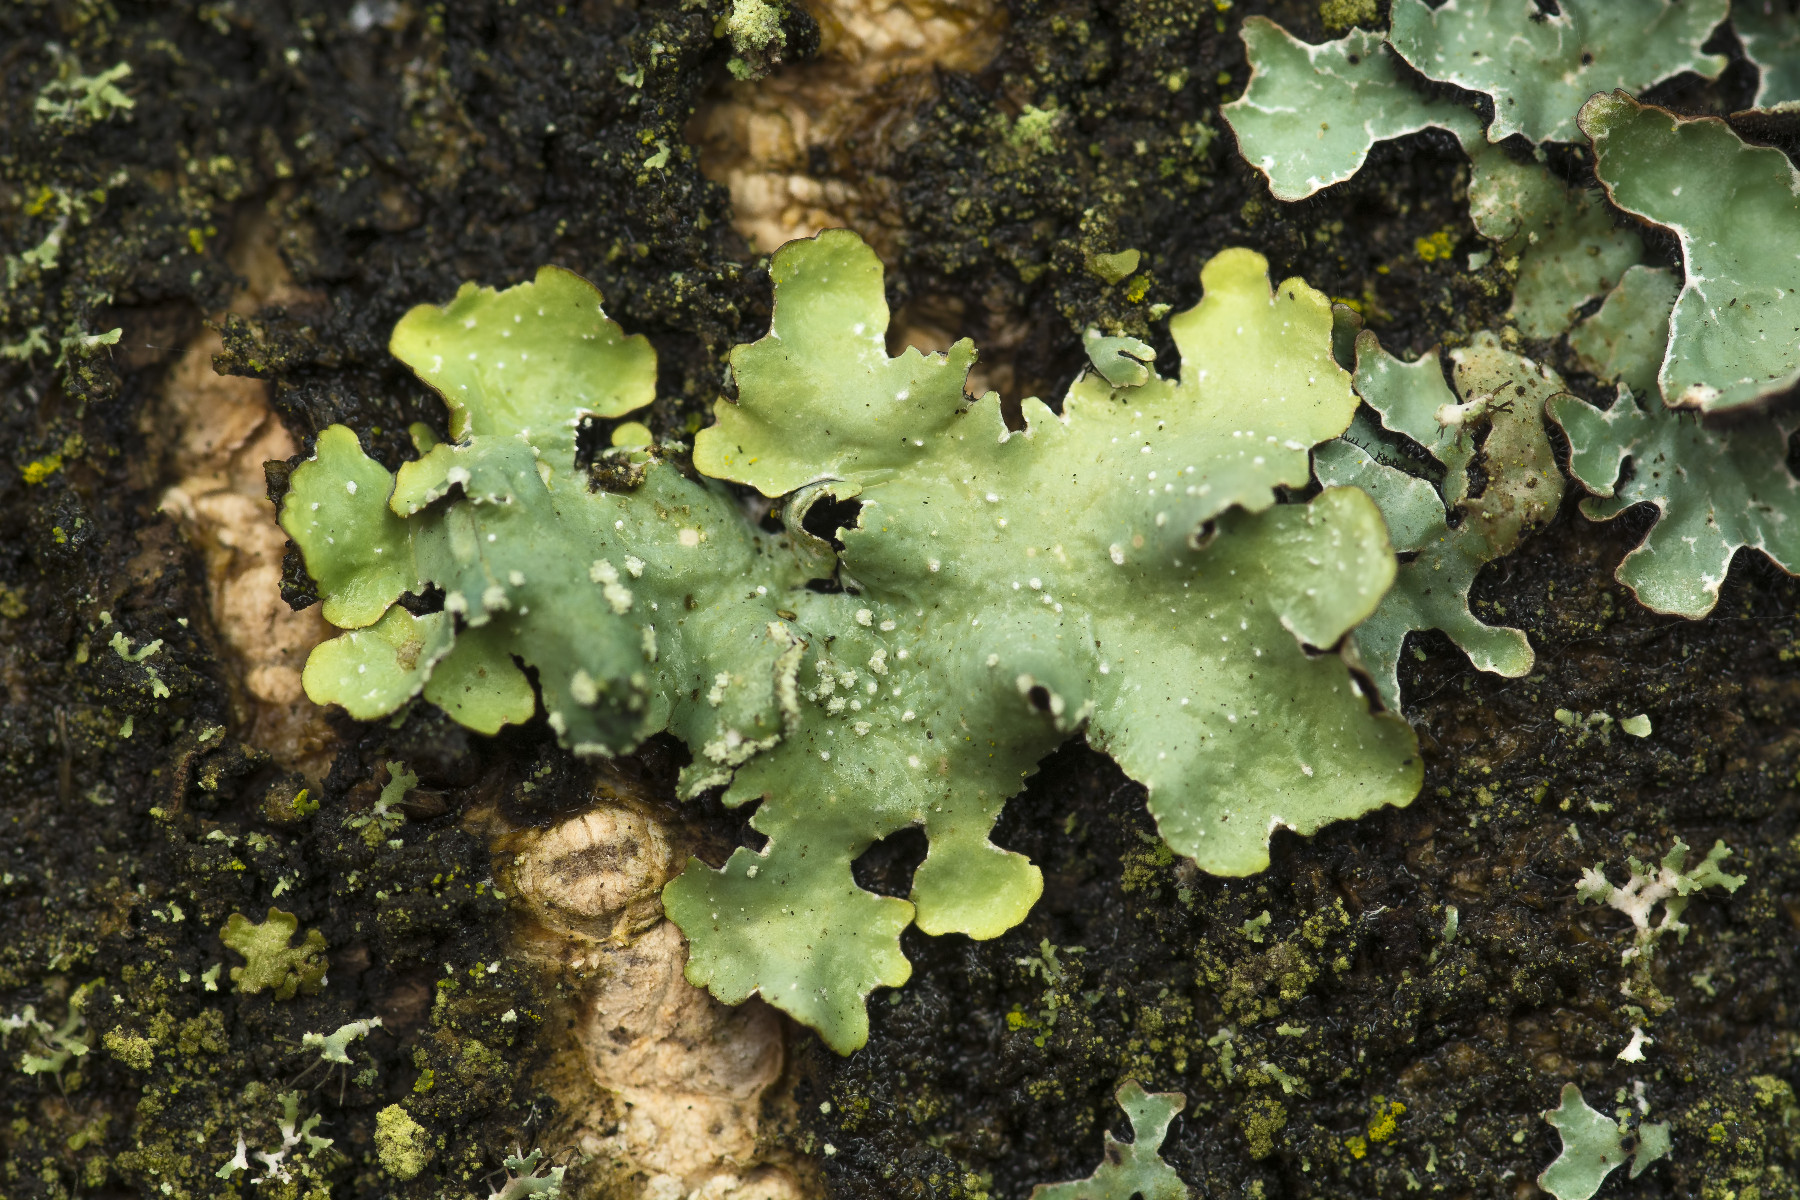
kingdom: Fungi
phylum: Ascomycota
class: Lecanoromycetes
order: Lecanorales
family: Parmeliaceae
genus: Punctelia
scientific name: Punctelia subrudecta
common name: punkt-skållav
